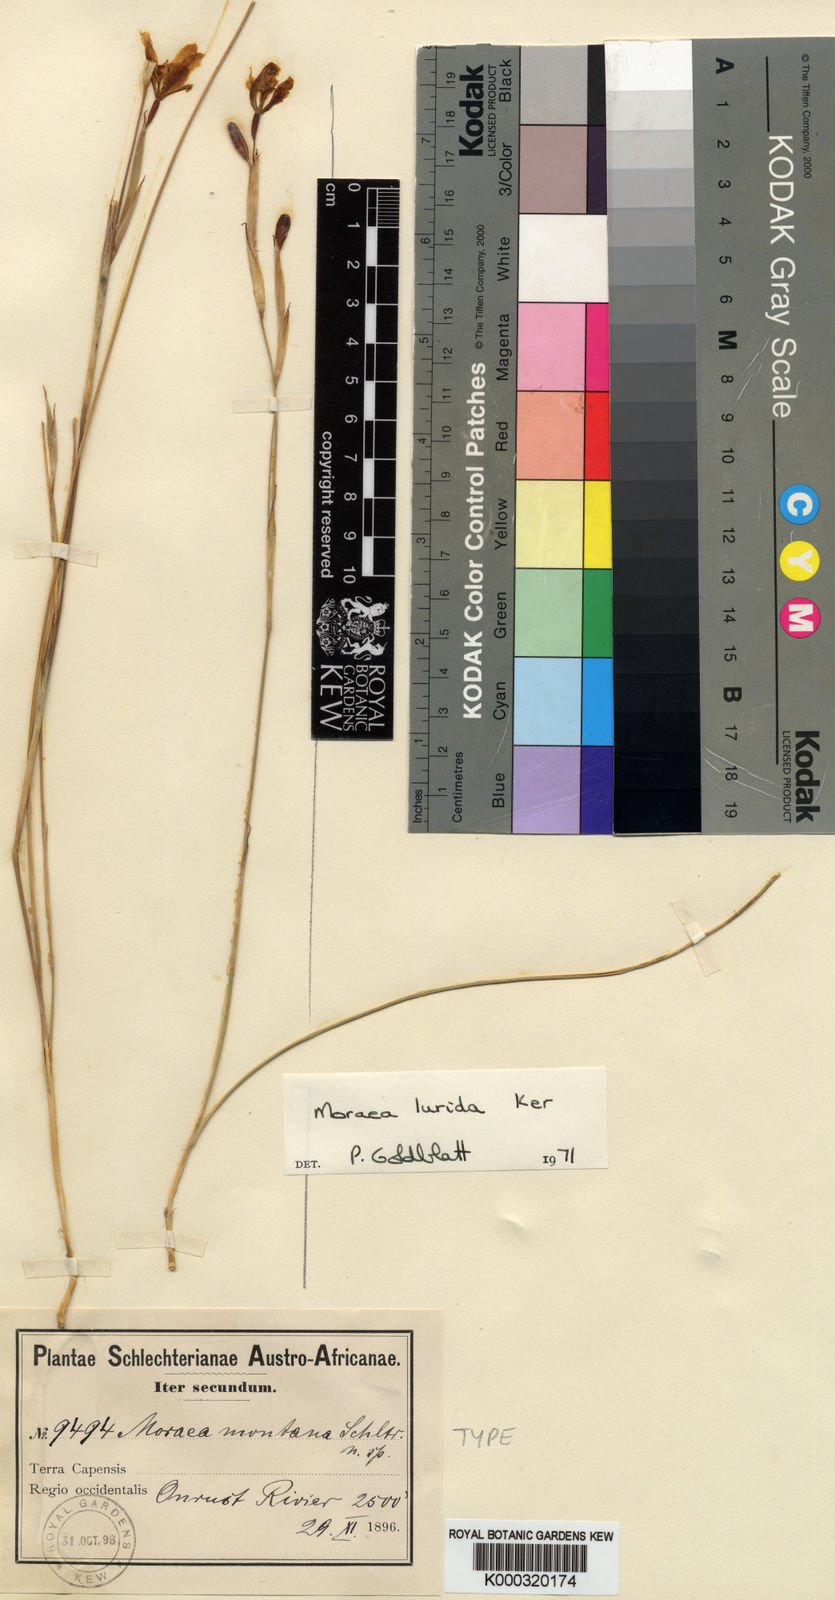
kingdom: Plantae
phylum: Tracheophyta
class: Liliopsida
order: Asparagales
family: Iridaceae
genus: Moraea
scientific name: Moraea lurida
